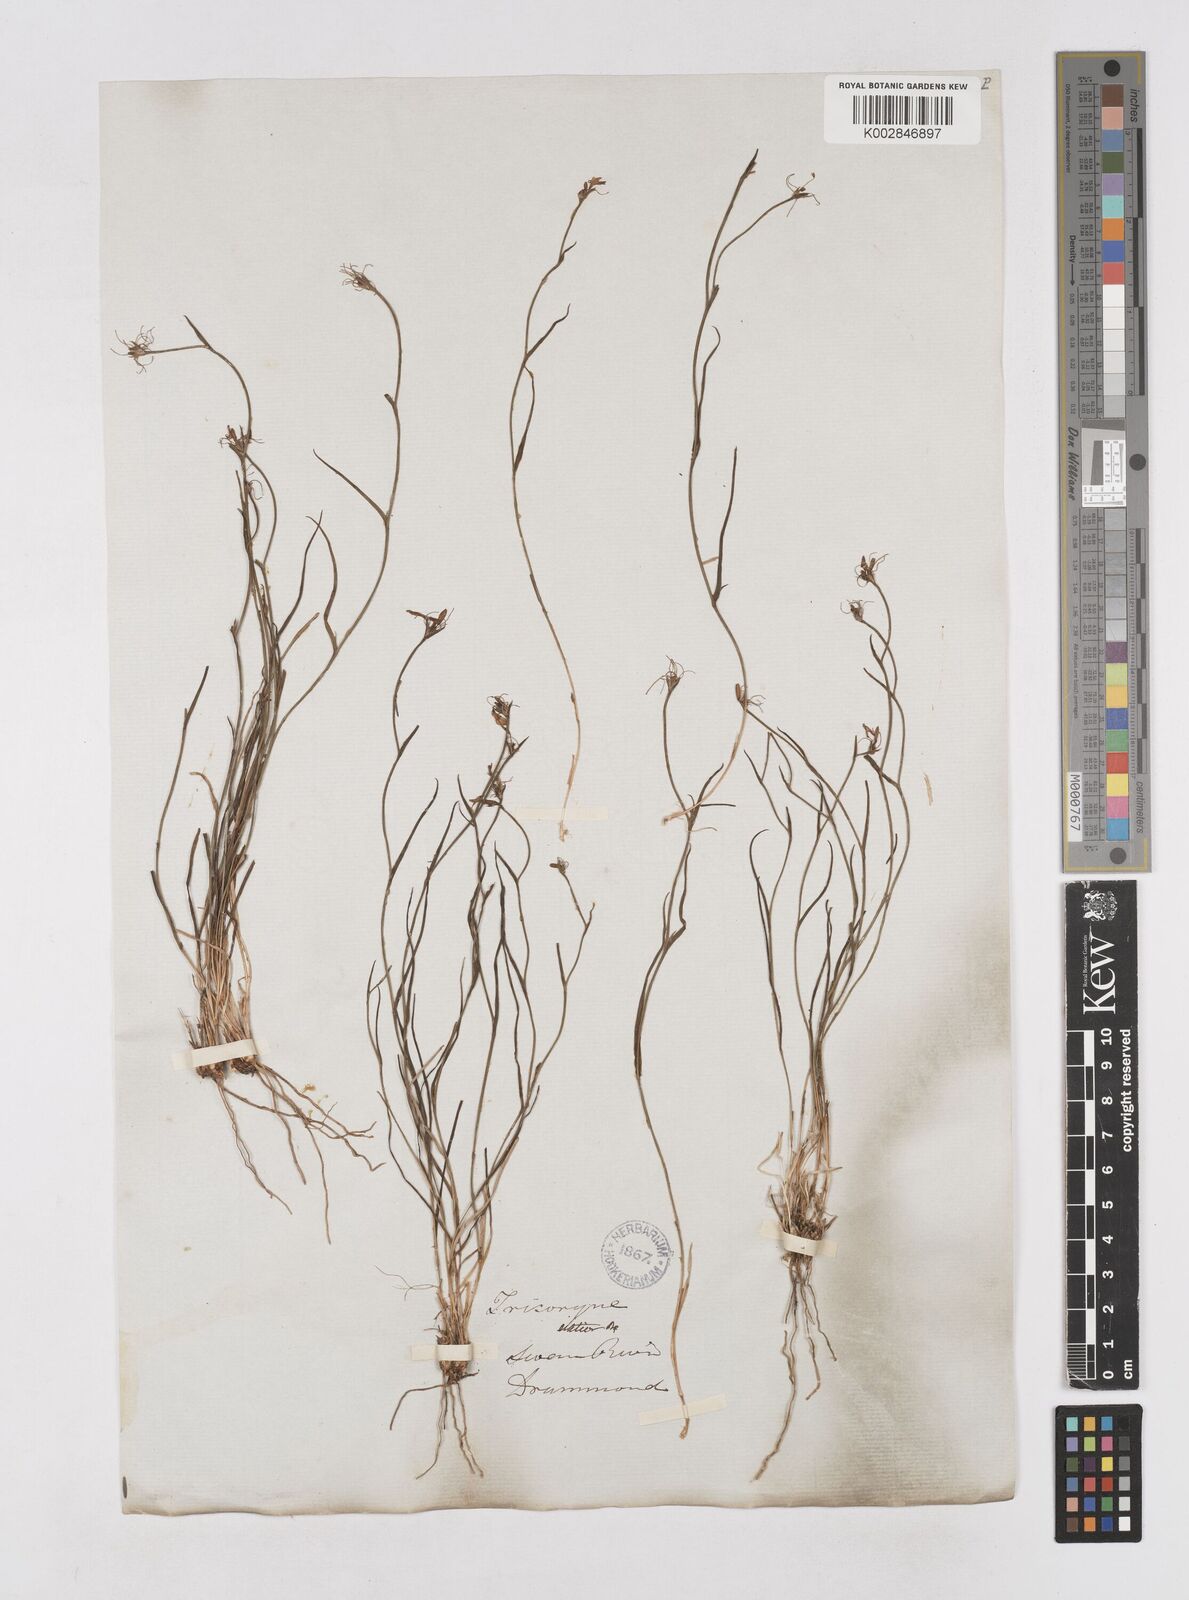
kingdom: Plantae
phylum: Tracheophyta
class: Liliopsida
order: Asparagales
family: Asphodelaceae
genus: Tricoryne
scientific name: Tricoryne elatior
